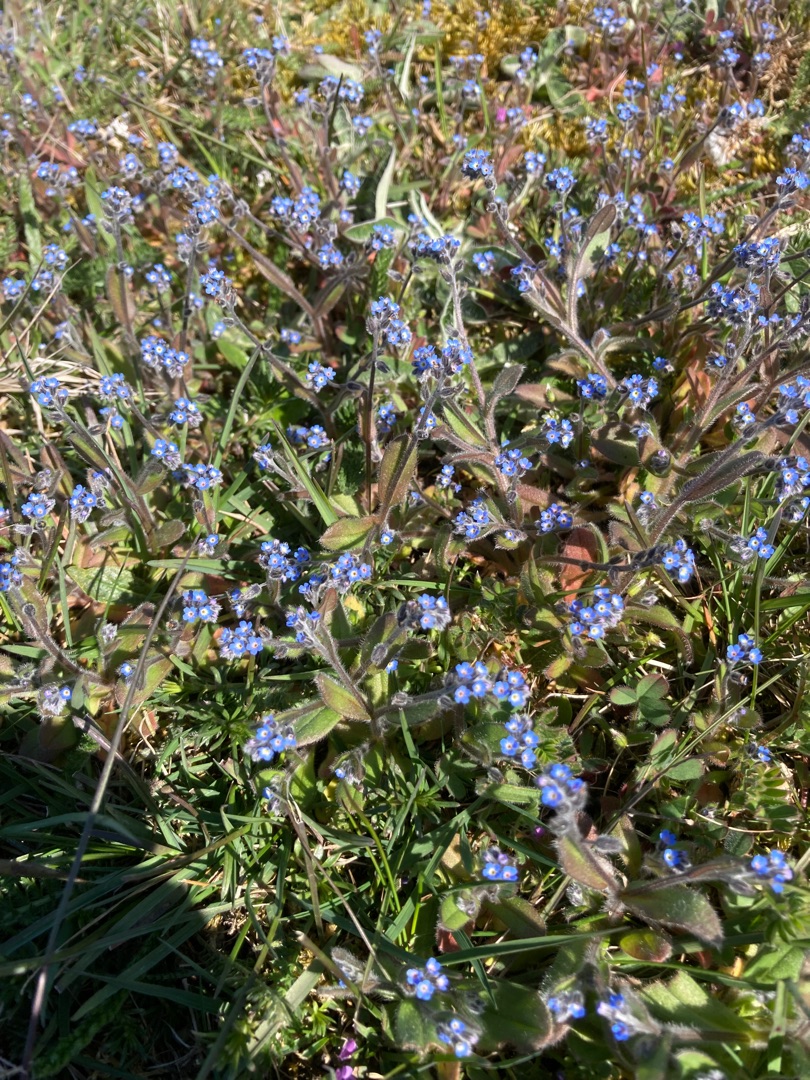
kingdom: Plantae
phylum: Tracheophyta
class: Magnoliopsida
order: Boraginales
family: Boraginaceae
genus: Myosotis
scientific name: Myosotis ramosissima
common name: Bakke-forglemmigej
